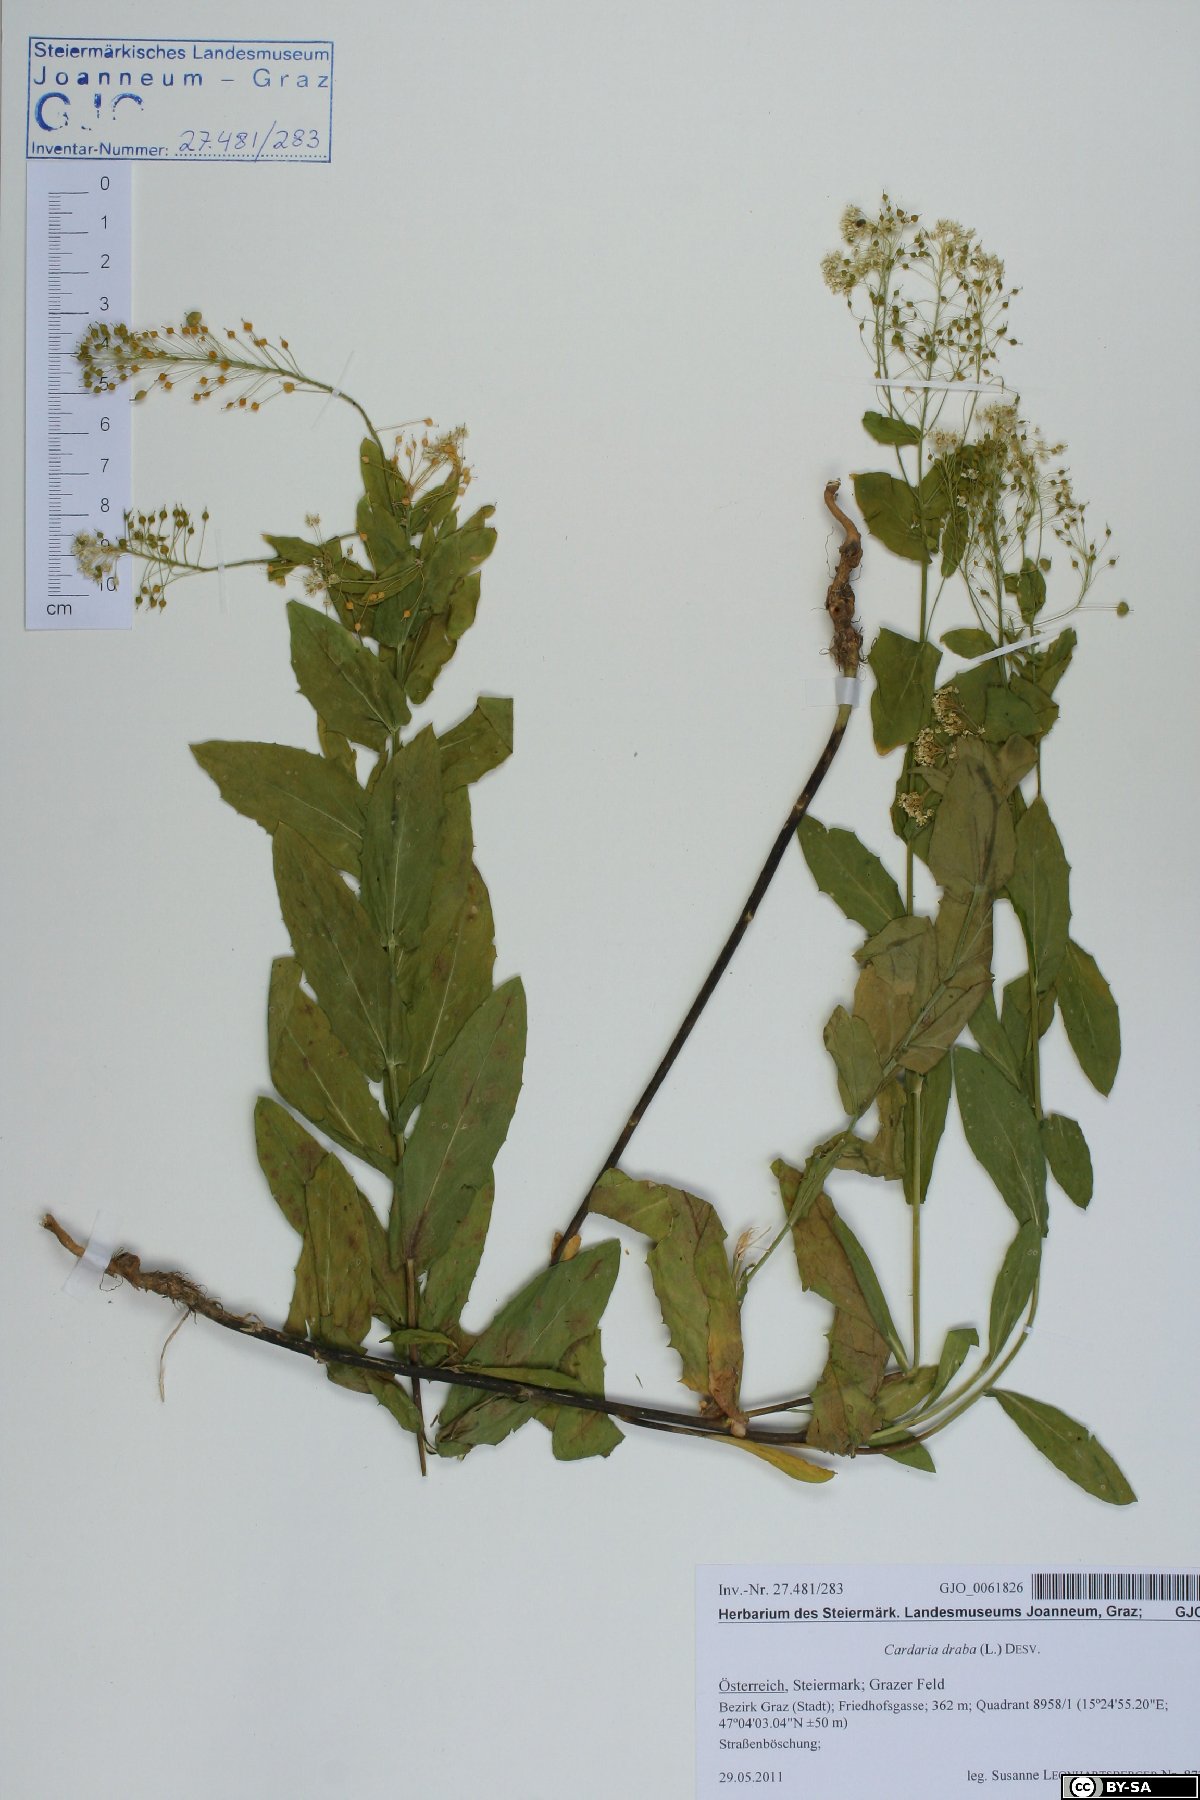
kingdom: Plantae
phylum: Tracheophyta
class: Magnoliopsida
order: Brassicales
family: Brassicaceae
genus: Lepidium
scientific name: Lepidium draba
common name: Hoary cress
